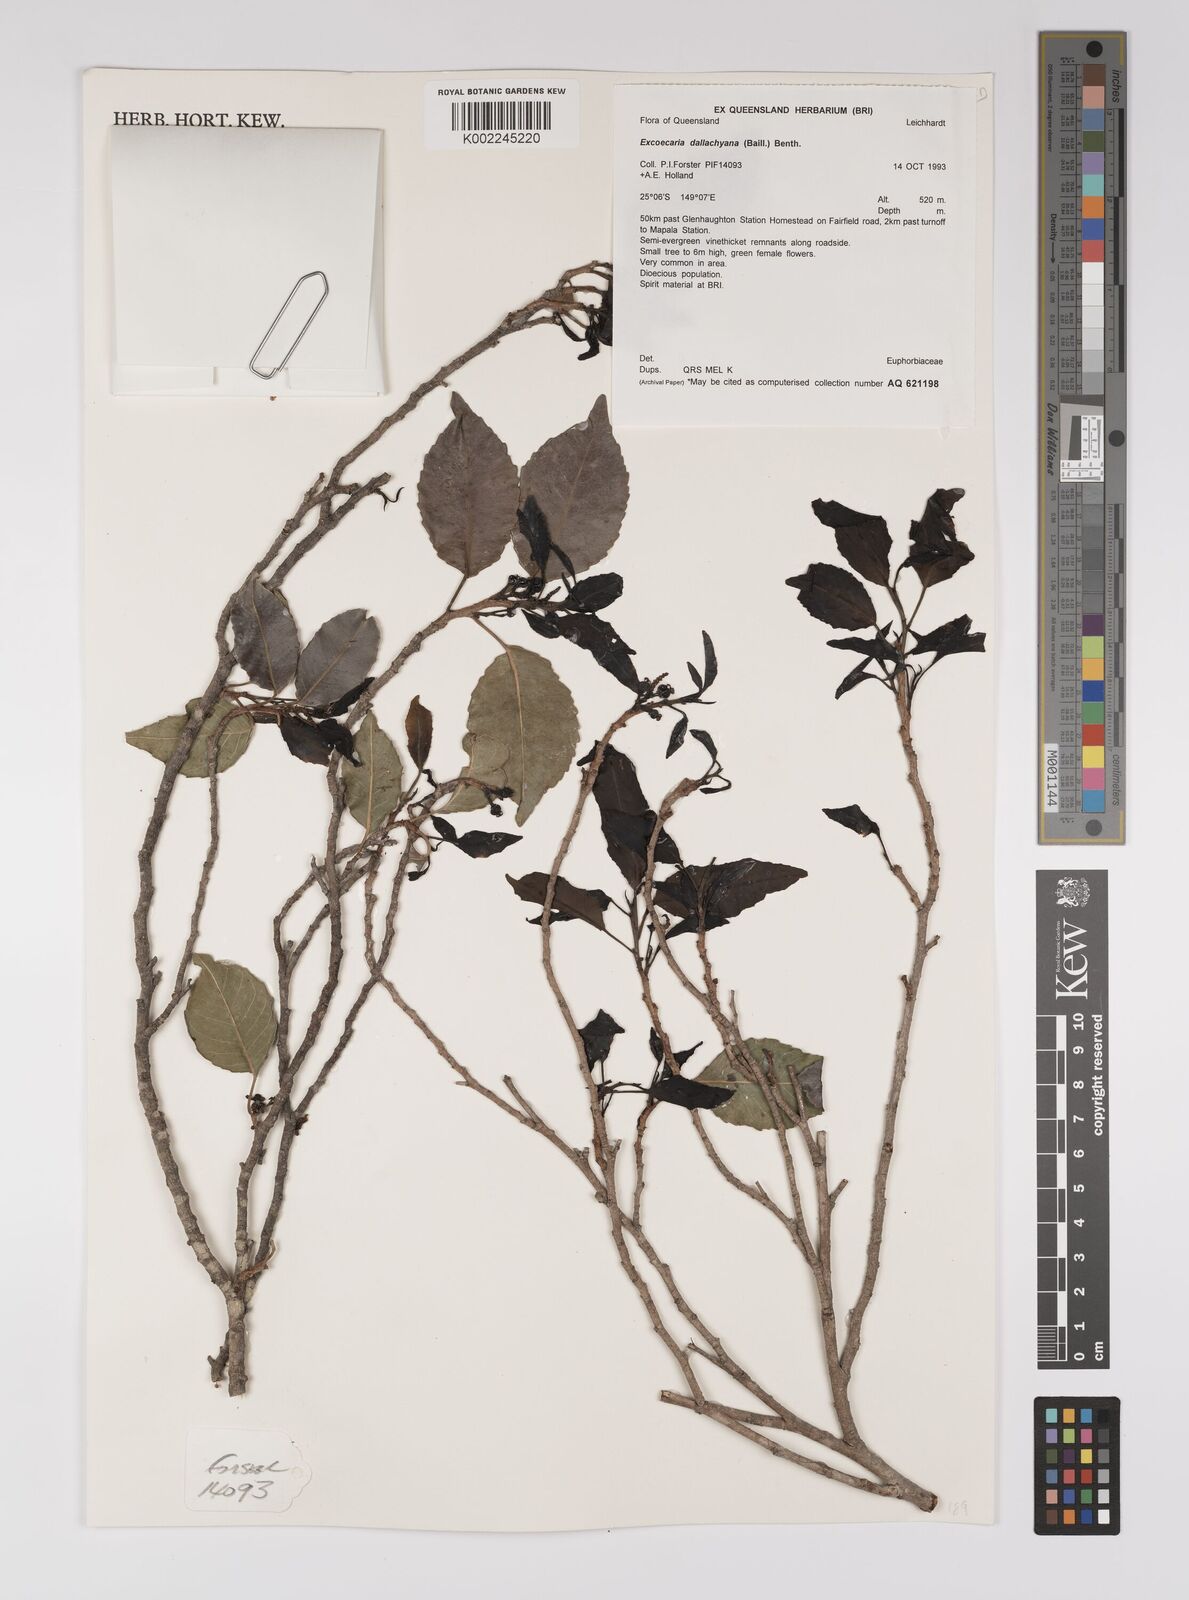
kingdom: Plantae
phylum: Tracheophyta
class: Magnoliopsida
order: Malpighiales
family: Euphorbiaceae
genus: Excoecaria
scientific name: Excoecaria dallachyana
